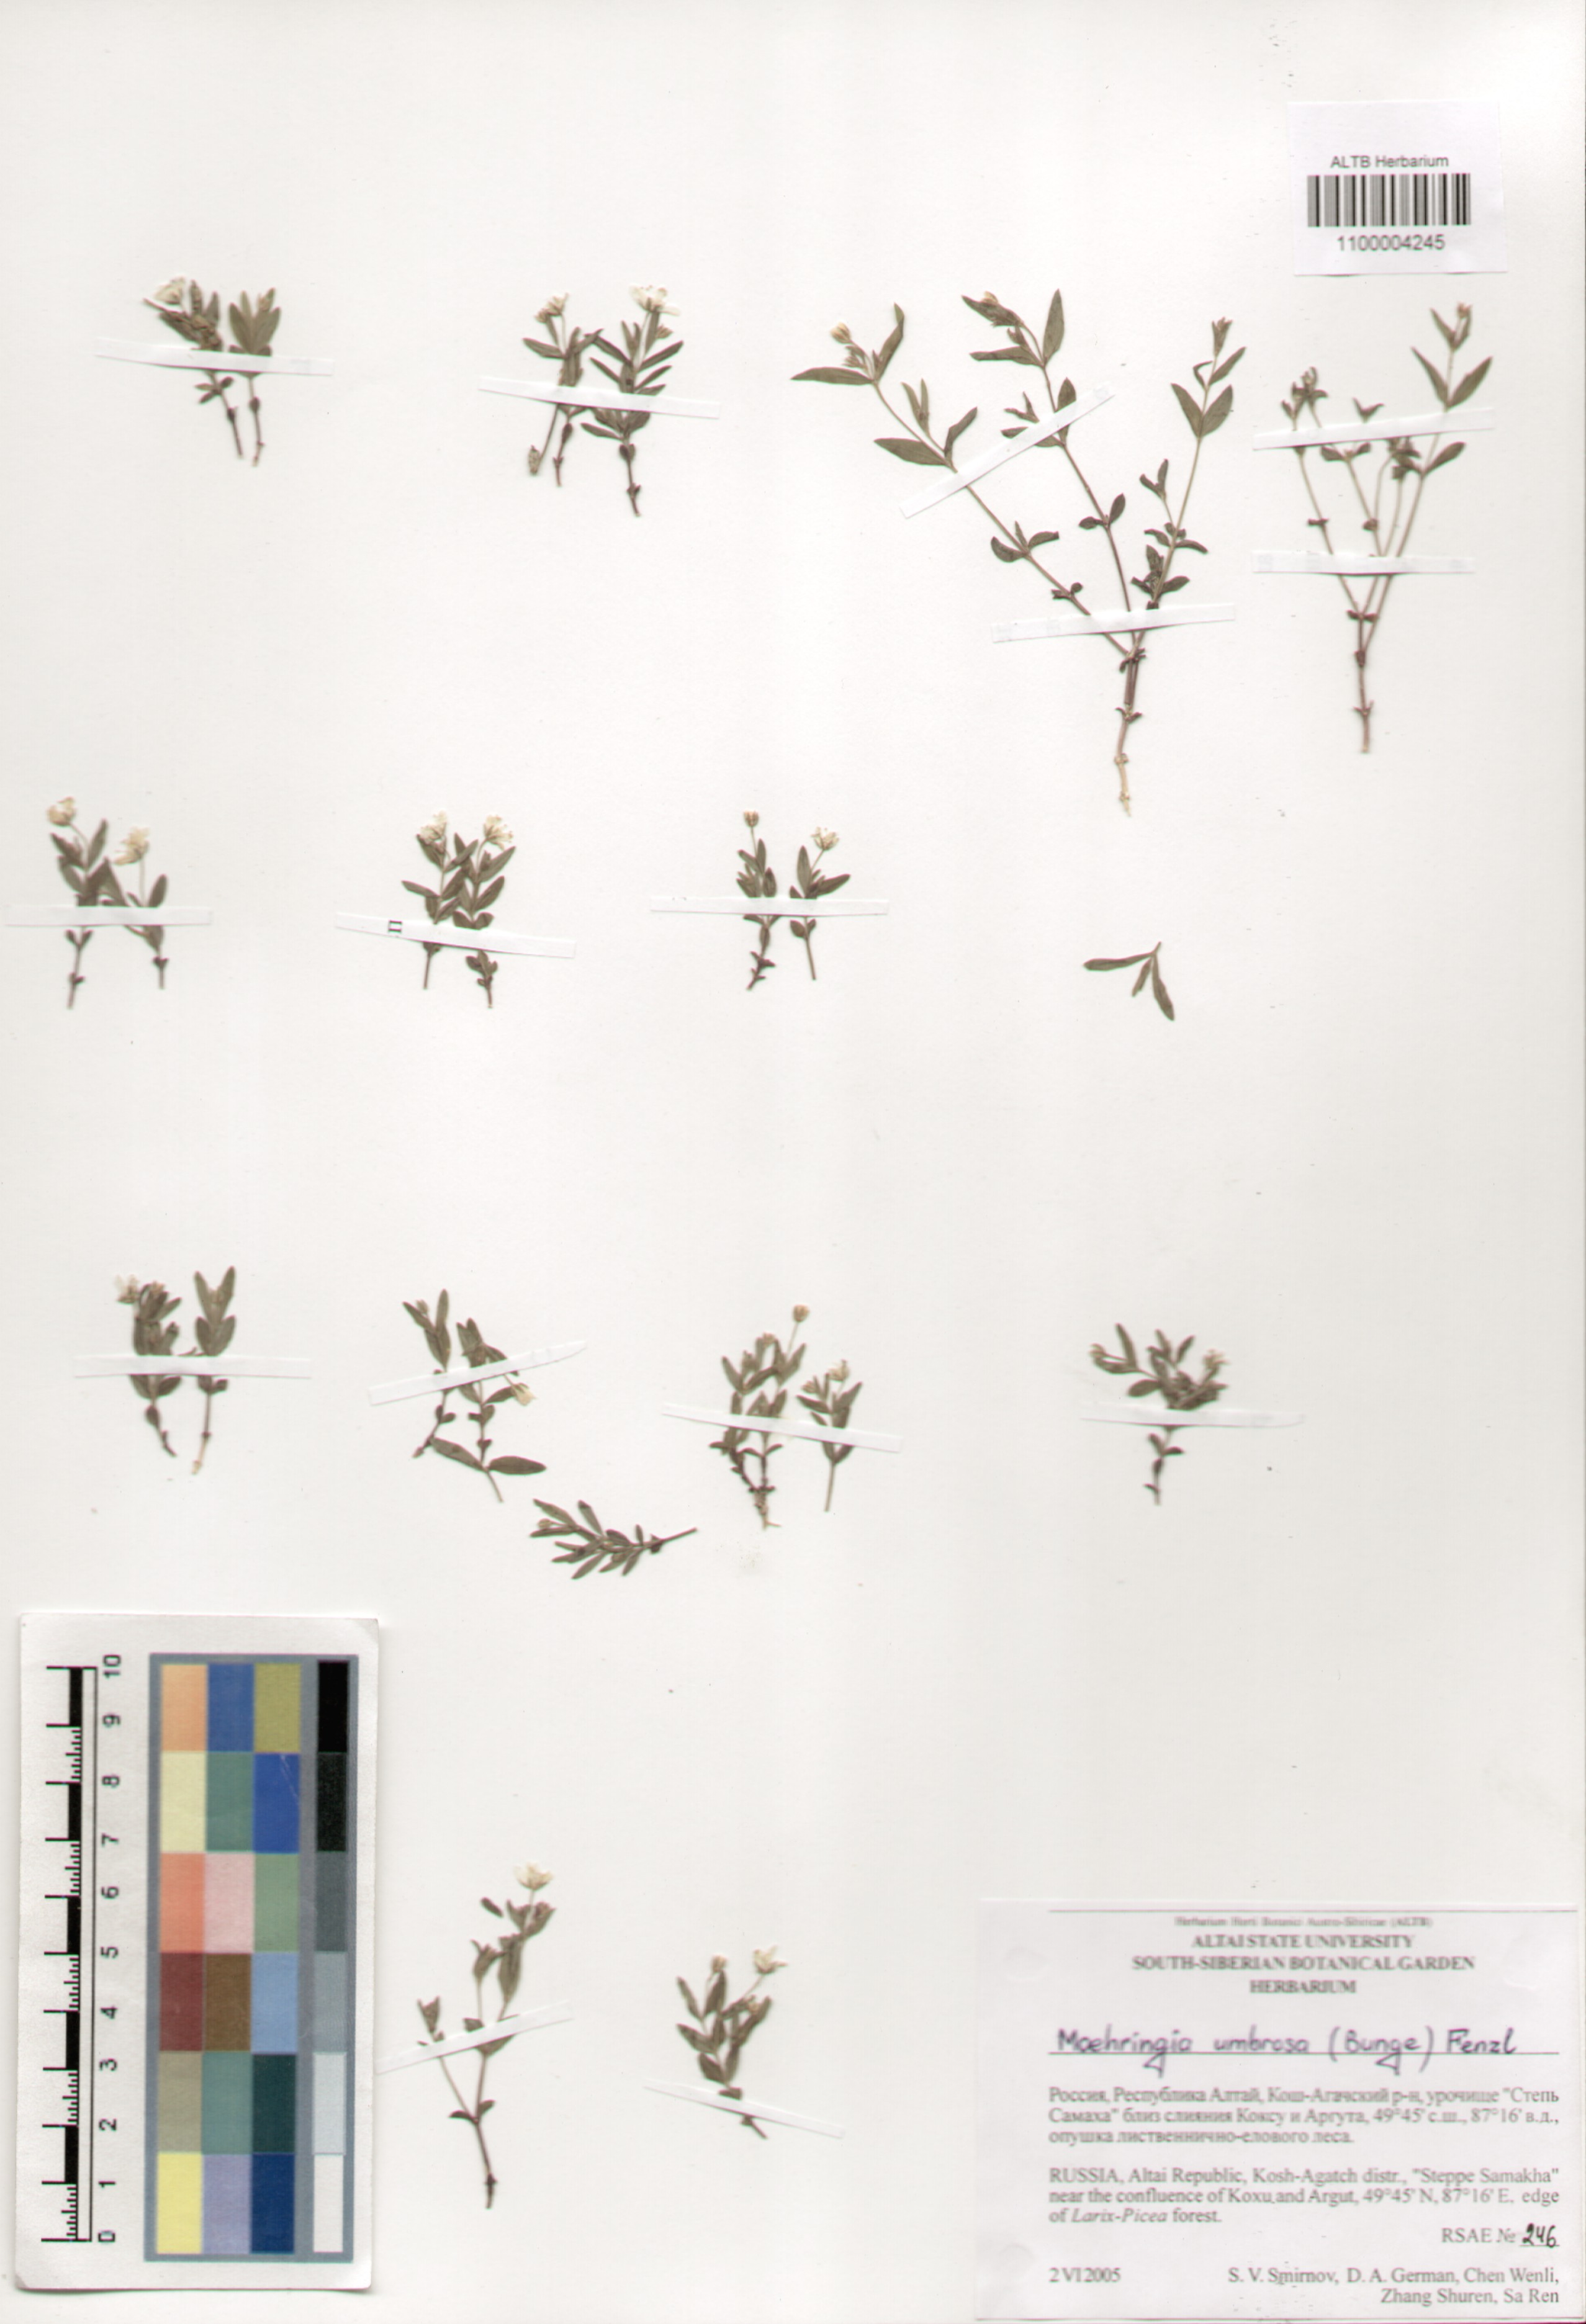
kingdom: Plantae
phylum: Tracheophyta
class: Magnoliopsida
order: Caryophyllales
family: Caryophyllaceae
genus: Moehringia
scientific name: Moehringia umbrosa
